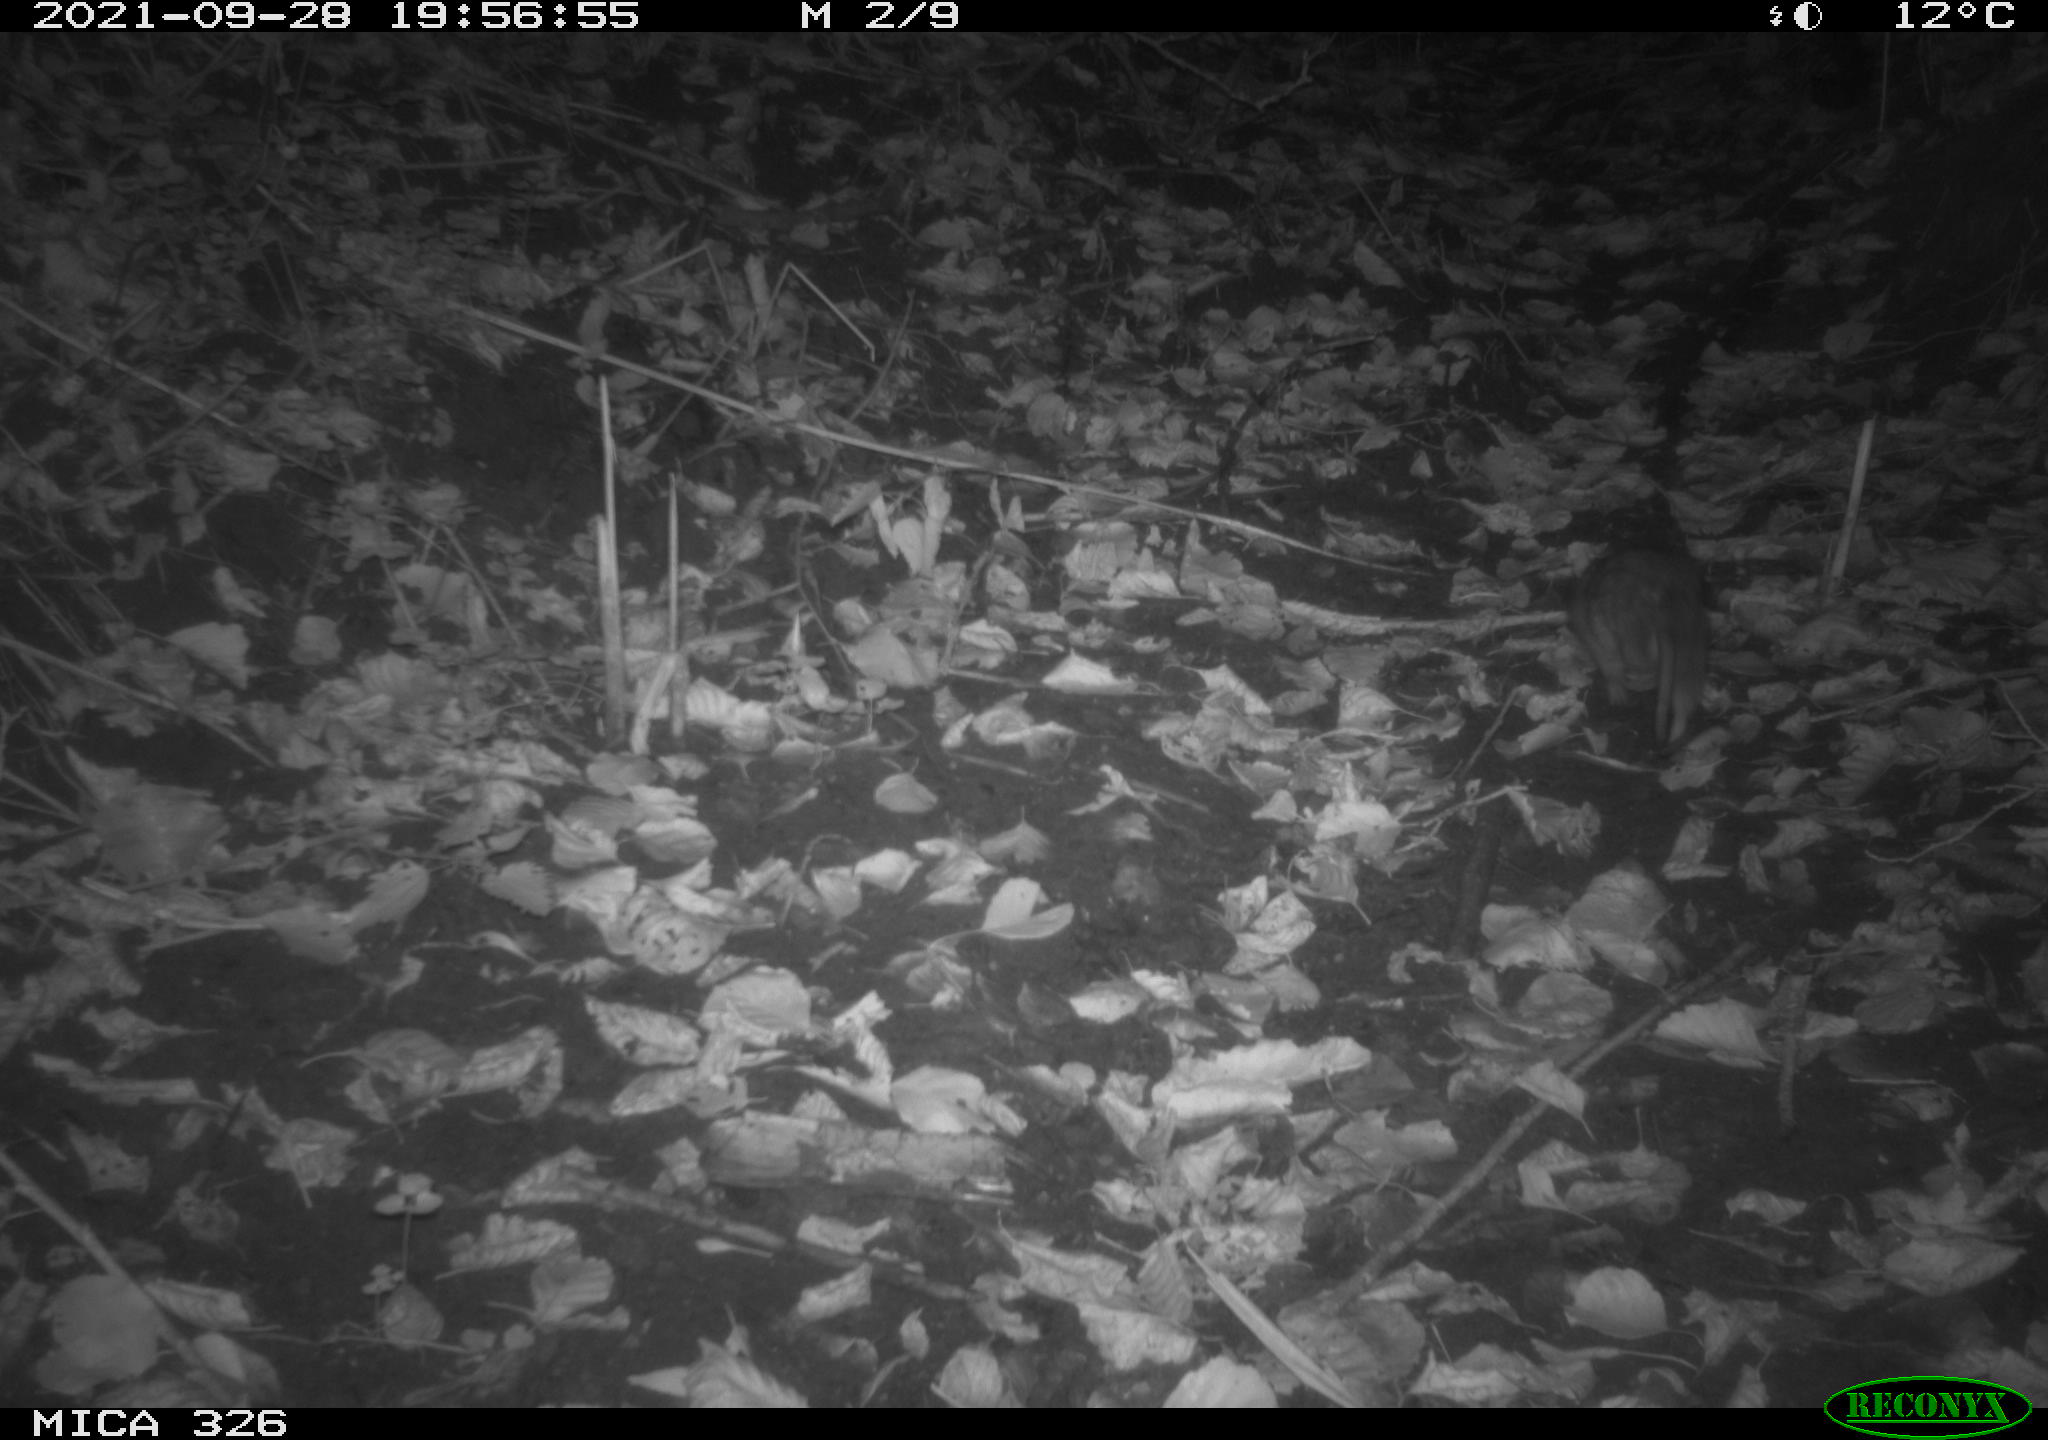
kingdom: Animalia
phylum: Chordata
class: Mammalia
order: Rodentia
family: Muridae
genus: Rattus
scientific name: Rattus norvegicus
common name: Brown rat
